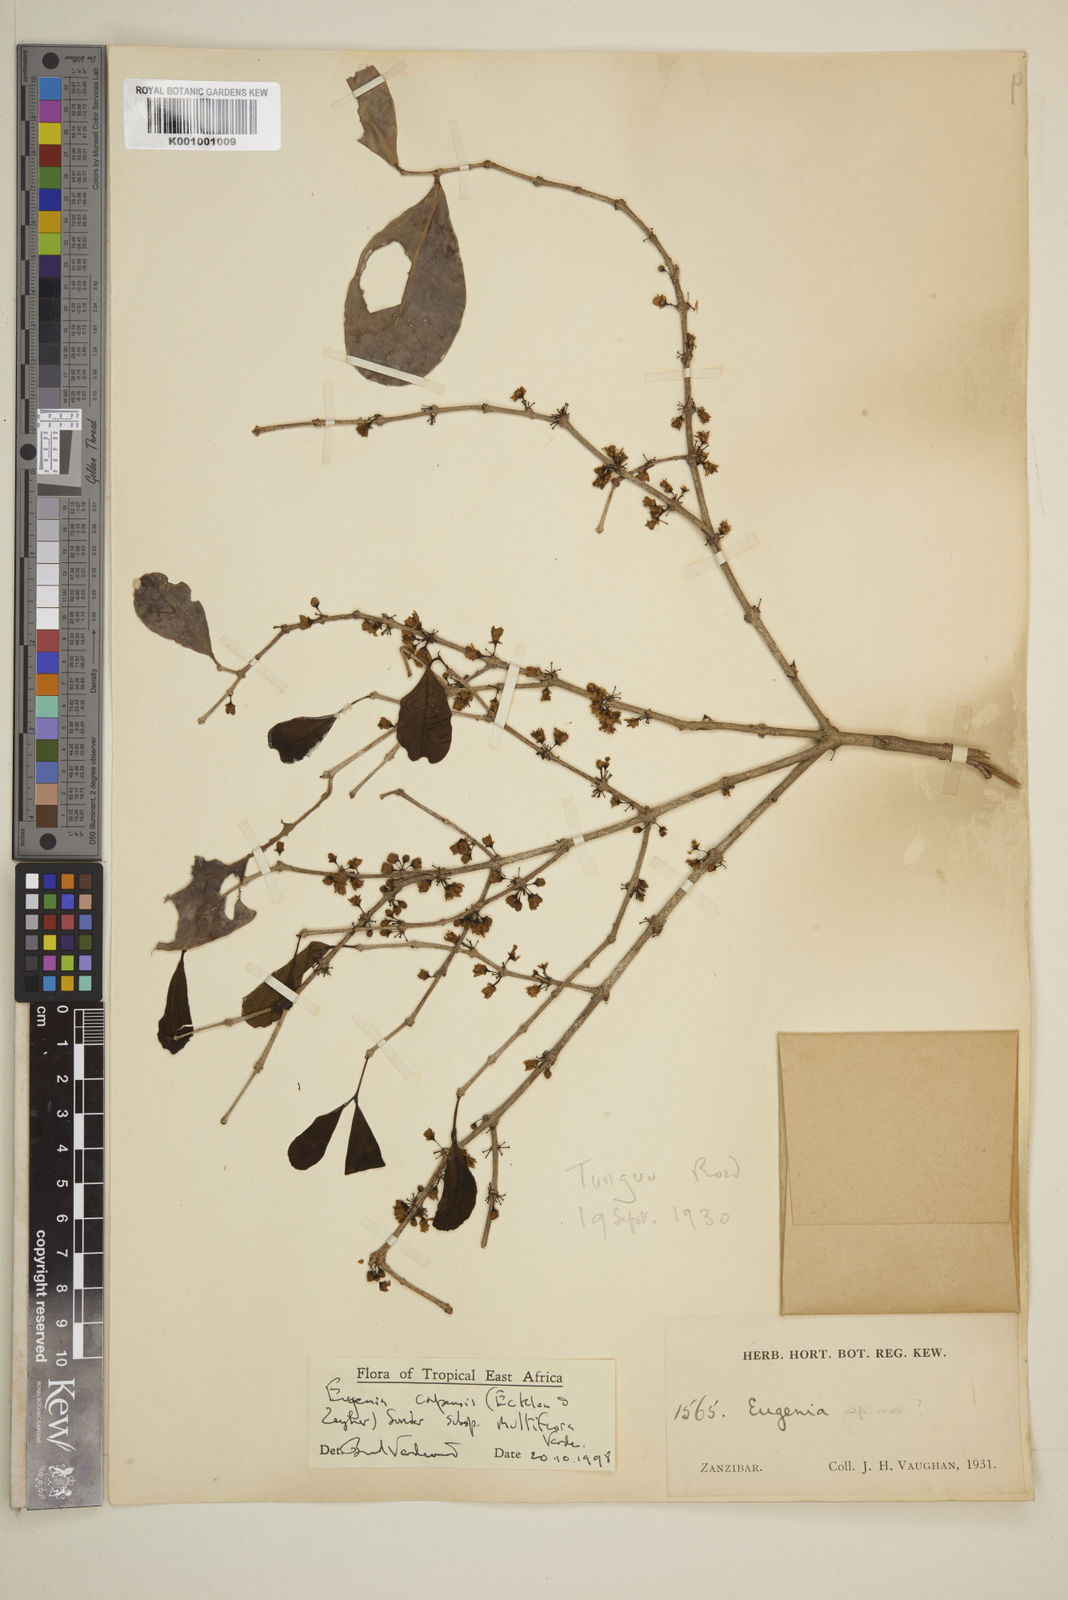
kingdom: Plantae
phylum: Tracheophyta
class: Magnoliopsida
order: Myrtales
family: Myrtaceae
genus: Eugenia
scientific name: Eugenia capensis
